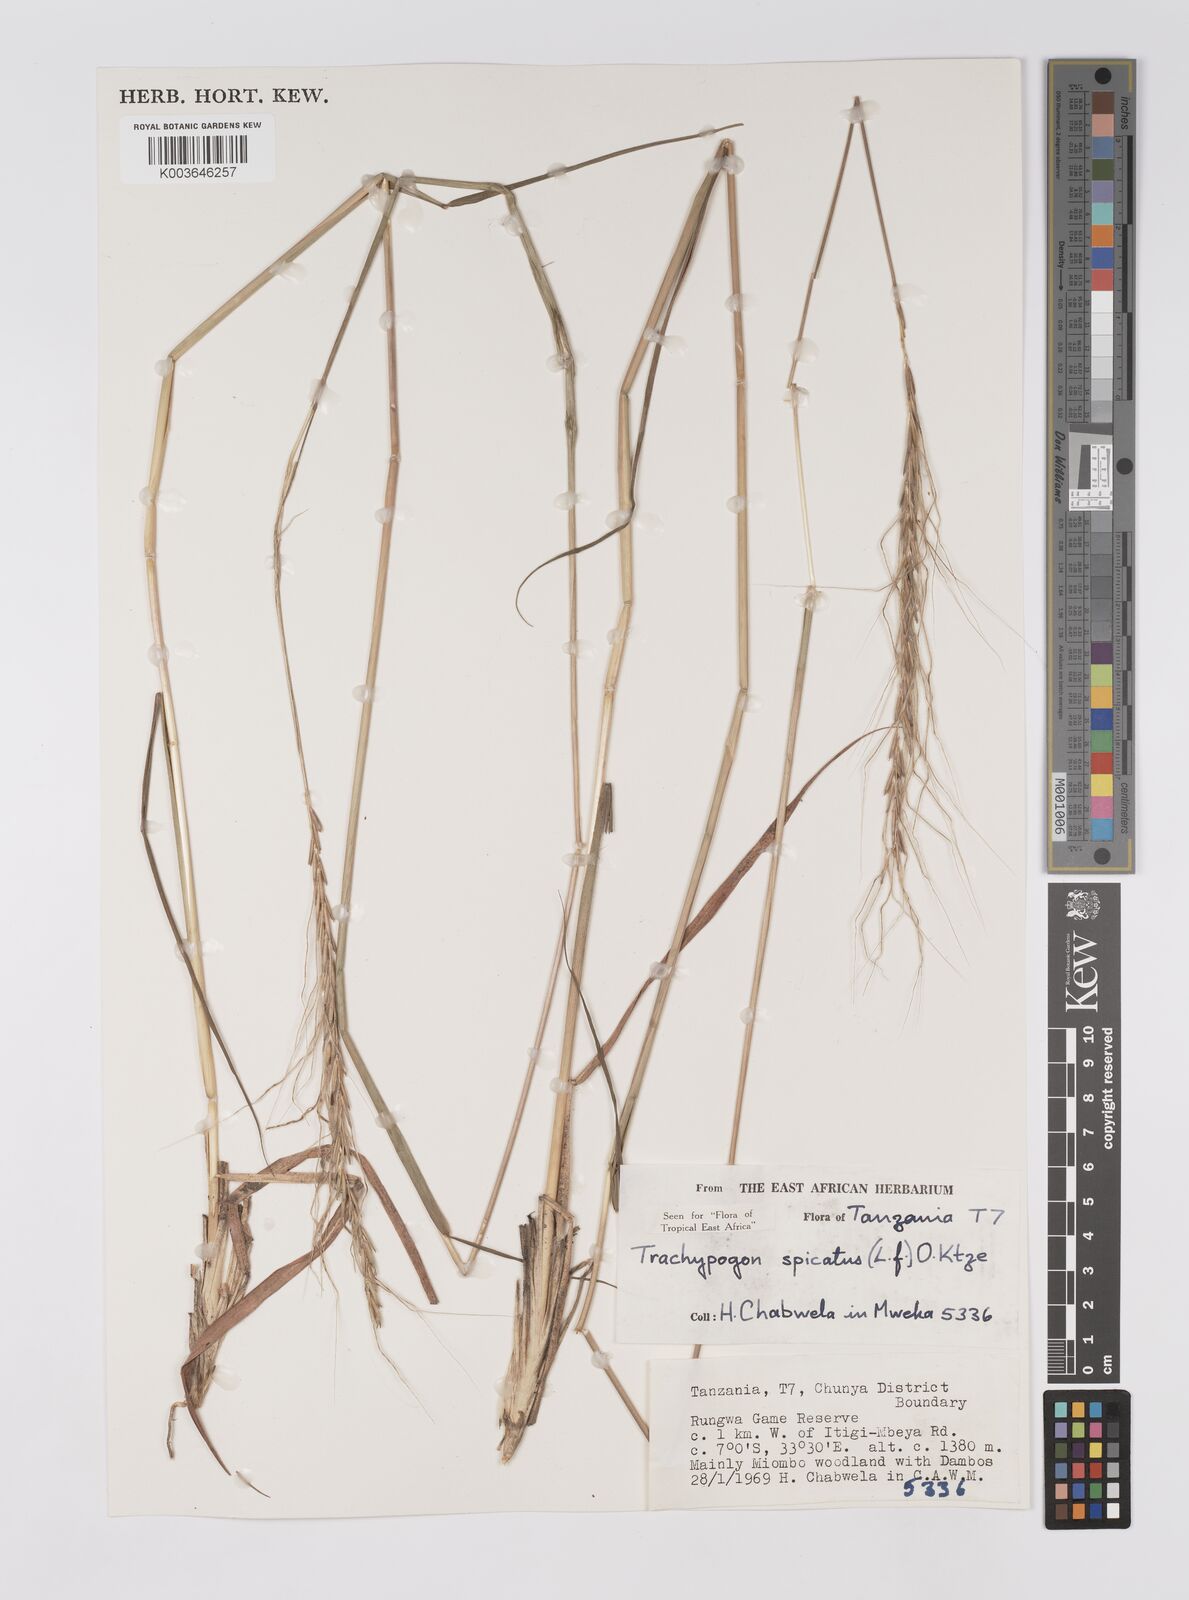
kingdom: Plantae
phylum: Tracheophyta
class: Liliopsida
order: Poales
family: Poaceae
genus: Trachypogon
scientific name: Trachypogon spicatus
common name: Crinkle-awn
